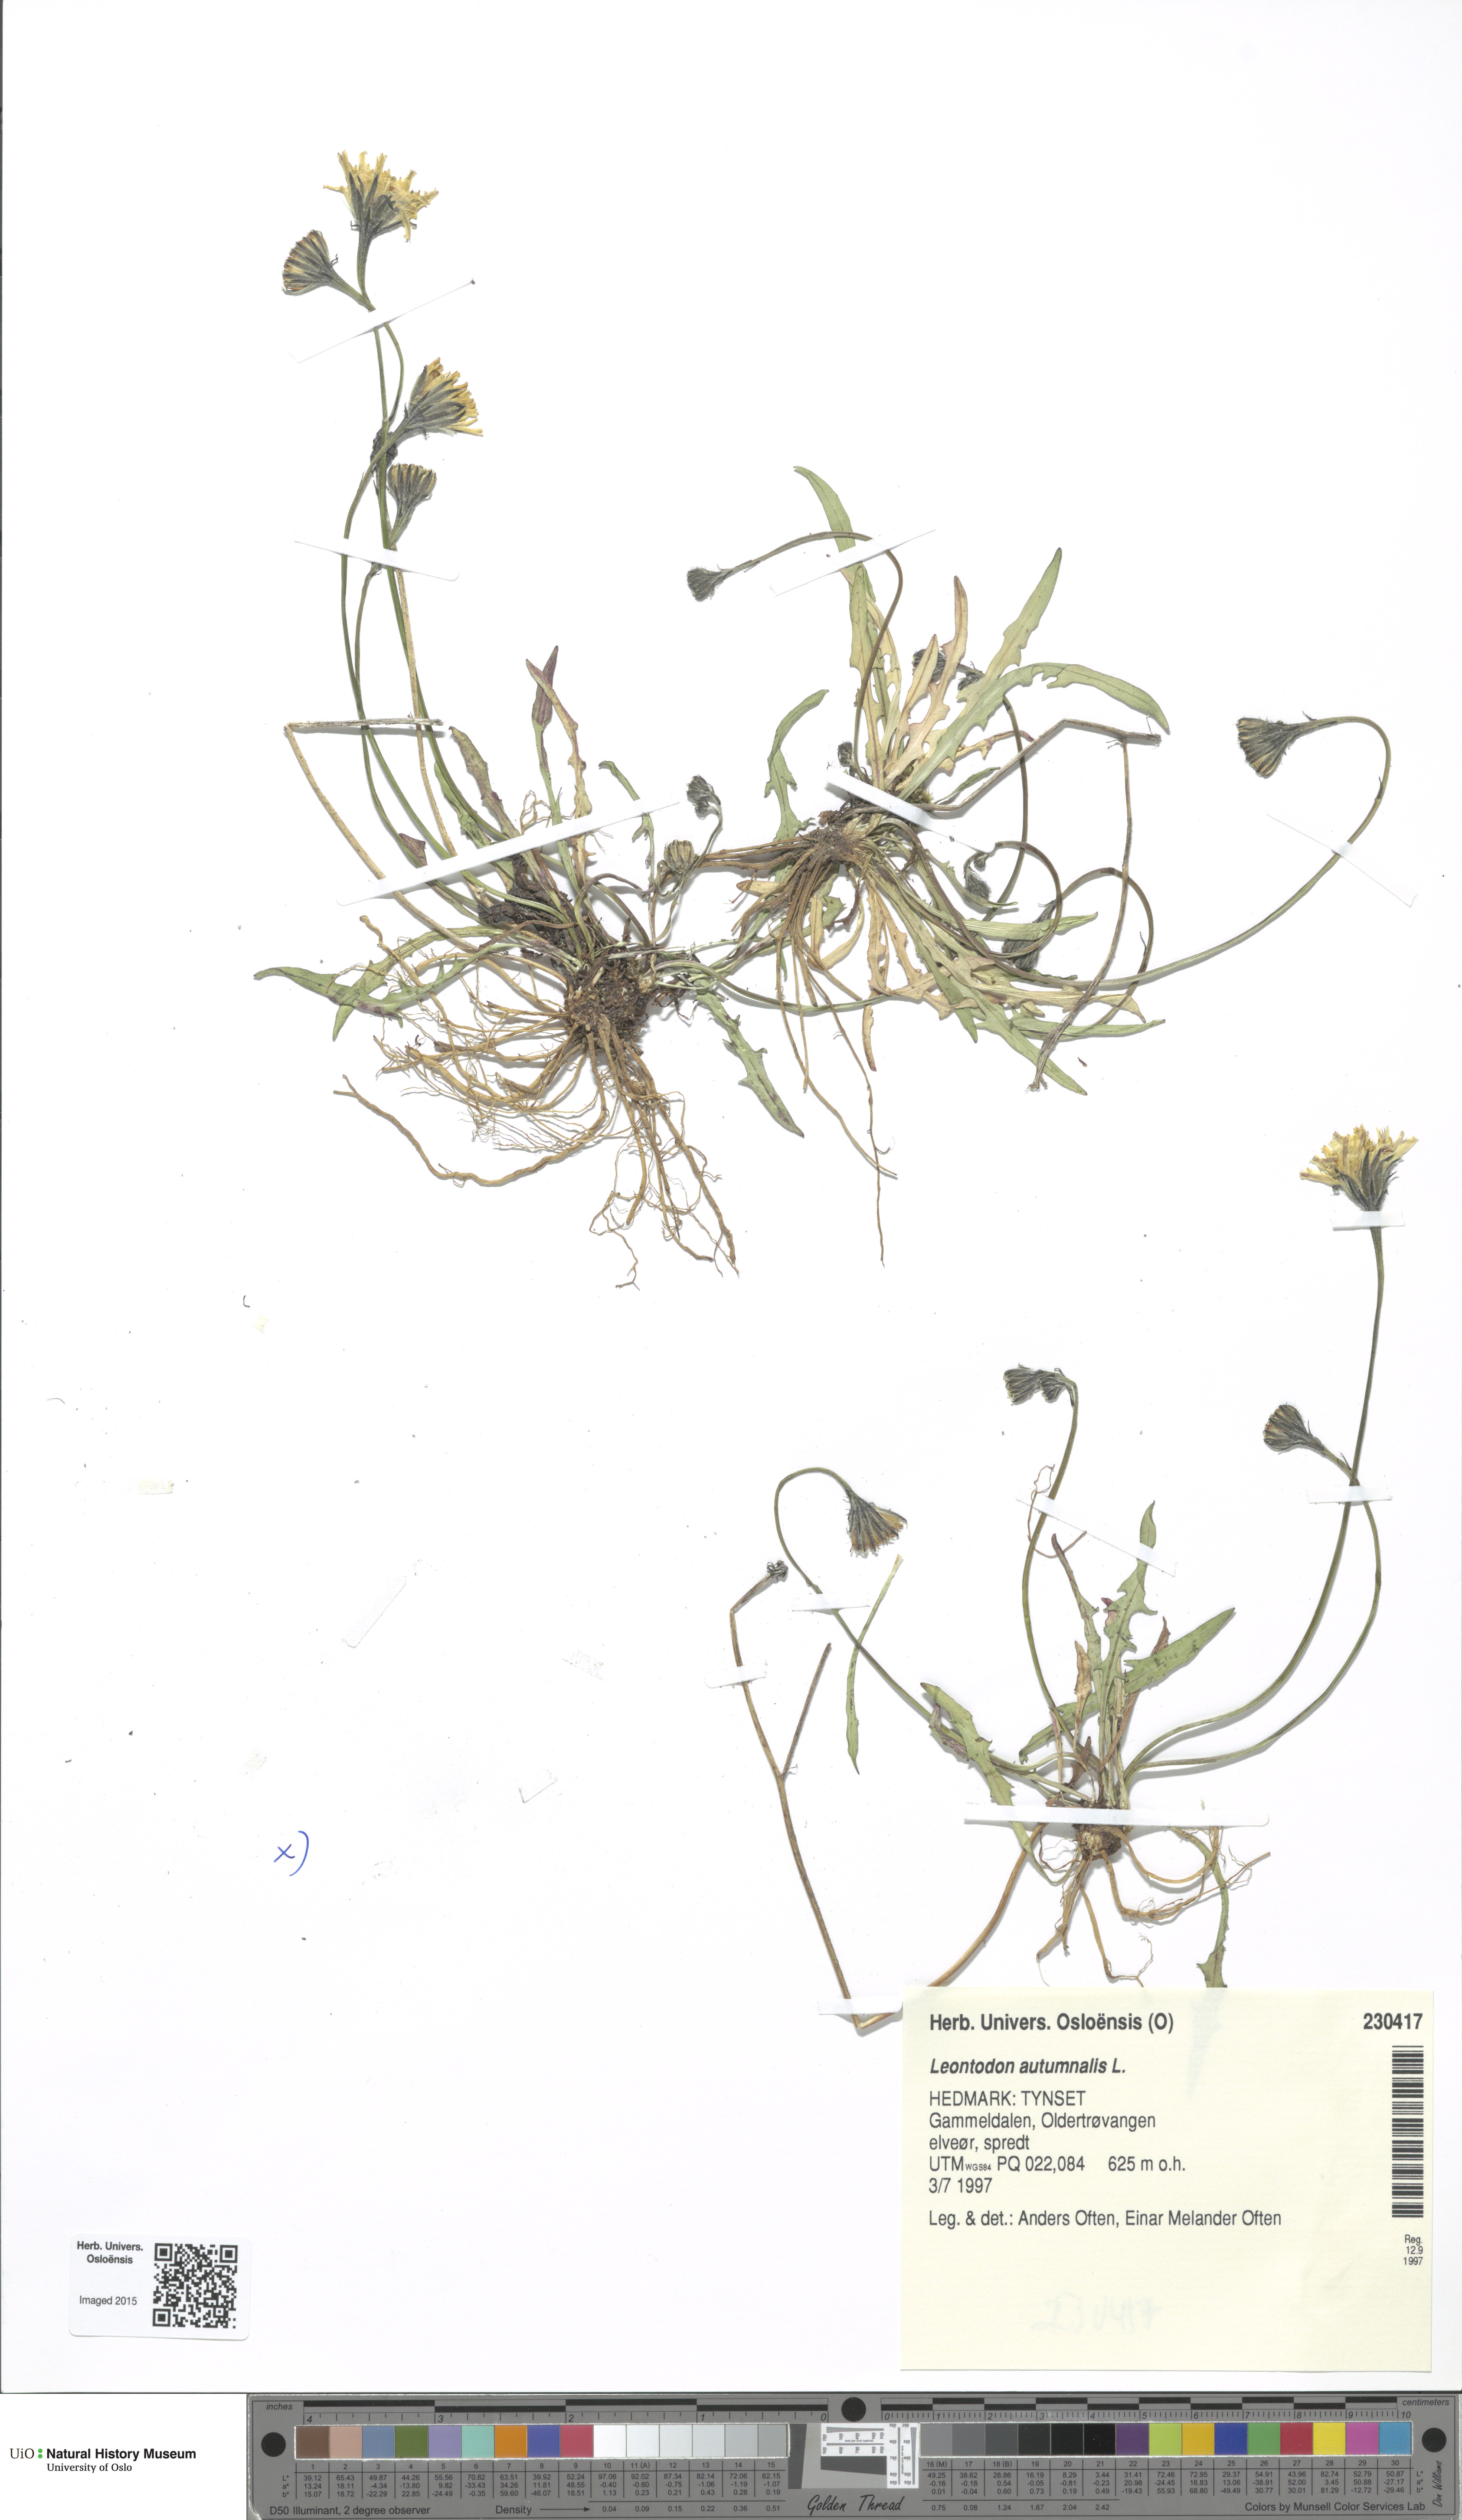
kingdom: Plantae
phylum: Tracheophyta
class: Magnoliopsida
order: Asterales
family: Asteraceae
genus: Scorzoneroides
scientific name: Scorzoneroides autumnalis
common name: Autumn hawkbit
